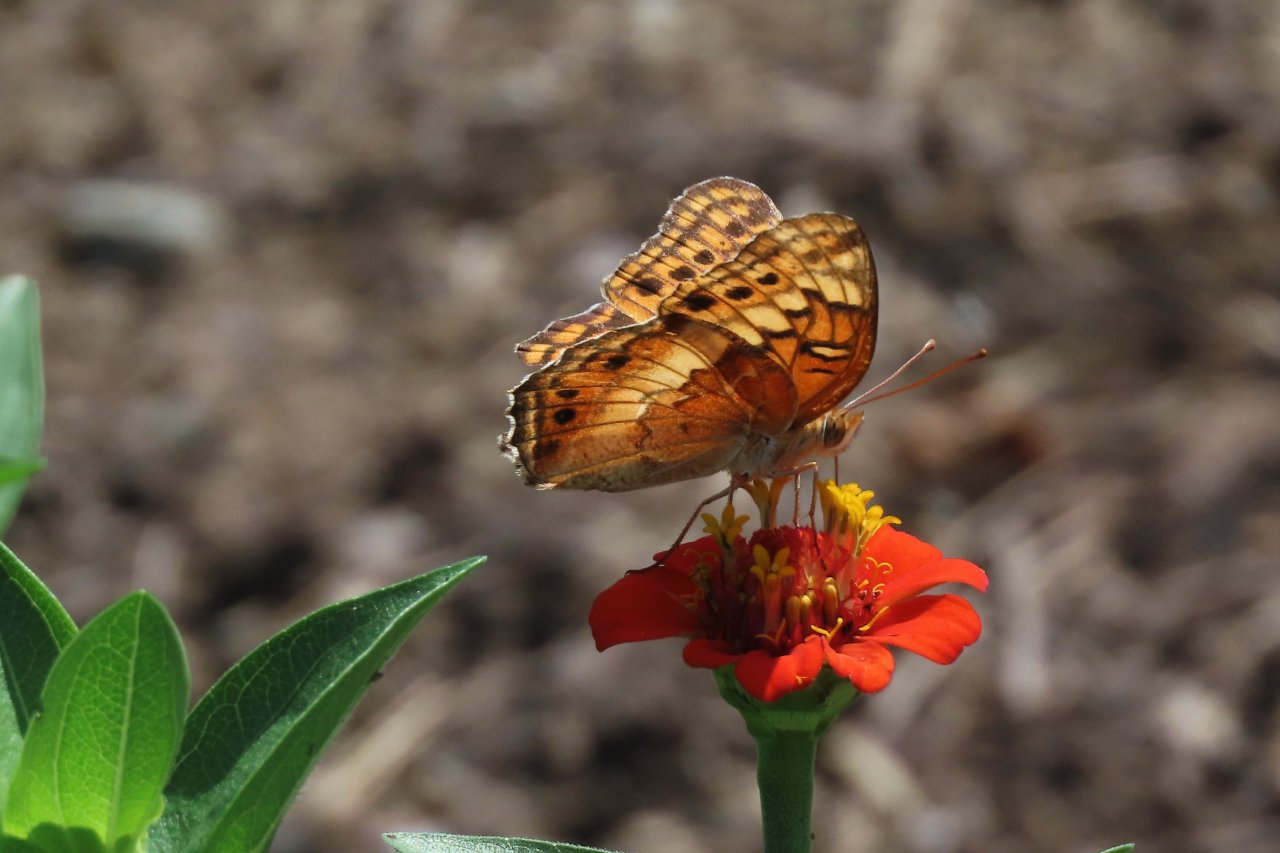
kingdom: Animalia
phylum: Arthropoda
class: Insecta
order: Lepidoptera
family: Nymphalidae
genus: Euptoieta
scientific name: Euptoieta claudia
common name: Variegated Fritillary
